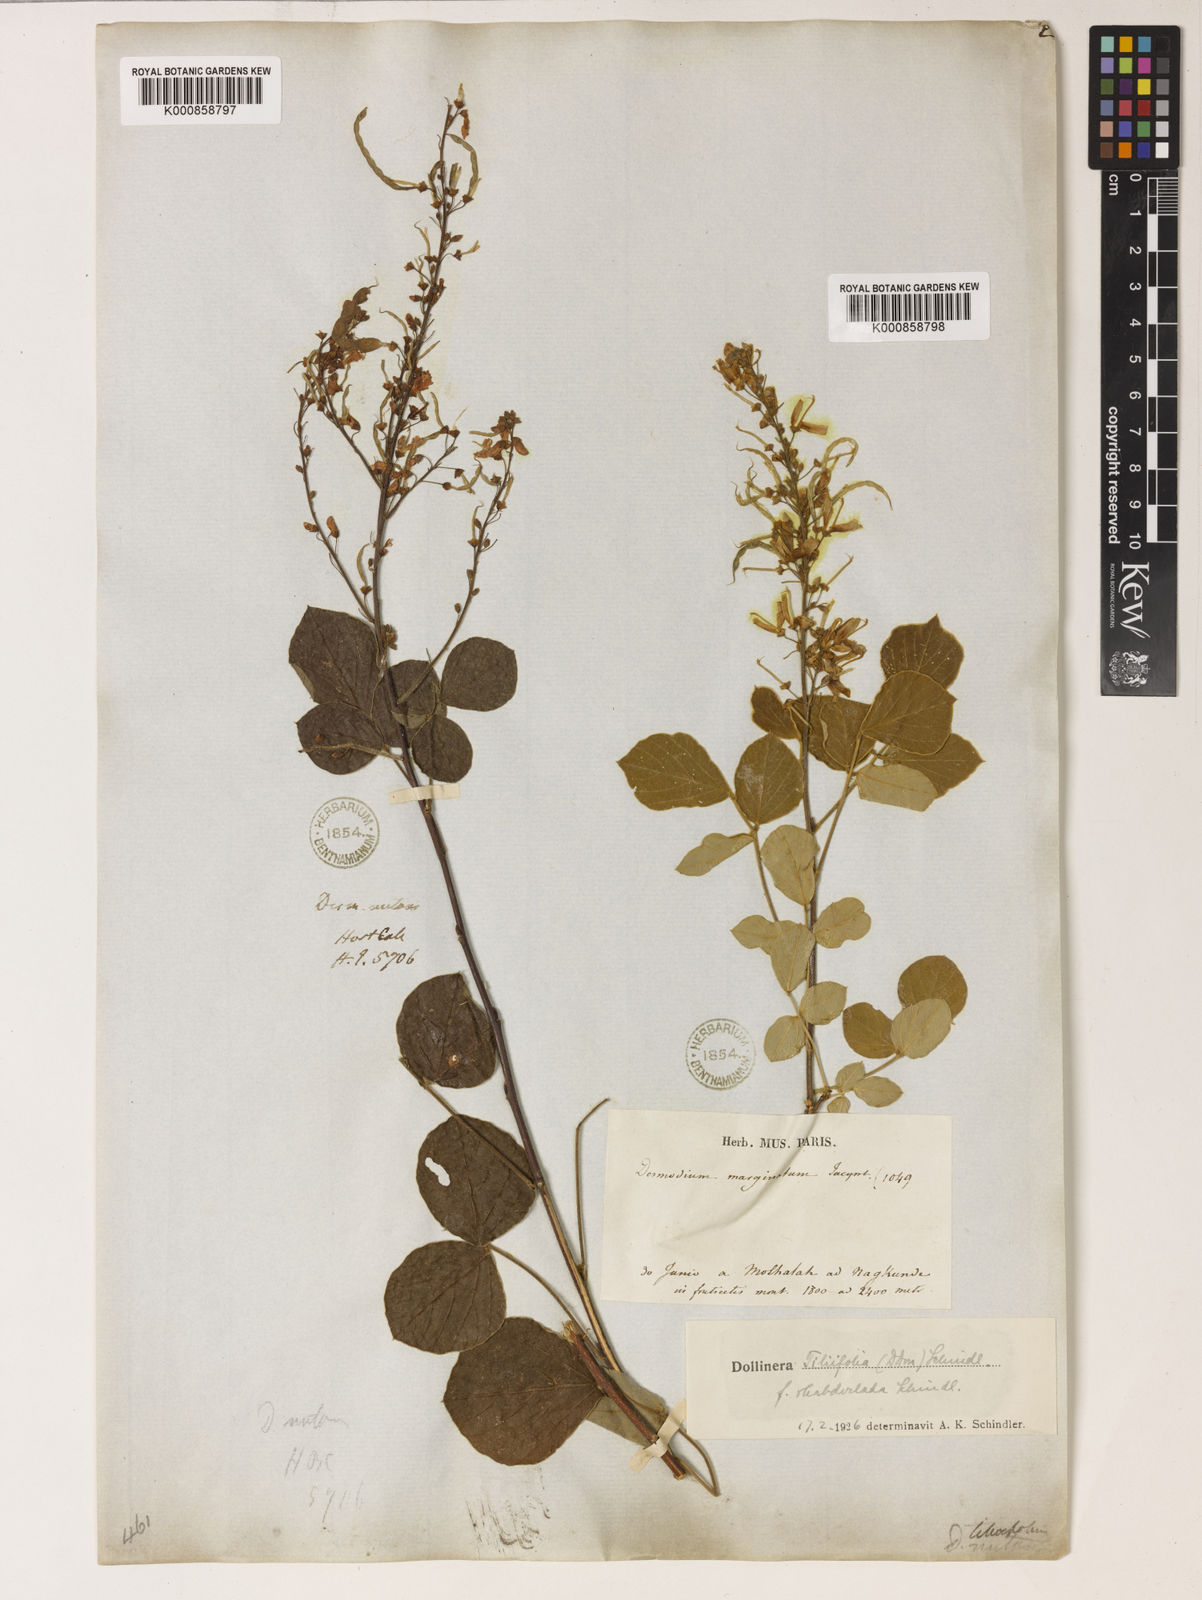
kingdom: Plantae
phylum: Tracheophyta
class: Magnoliopsida
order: Fabales
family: Fabaceae
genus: Sunhangia
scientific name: Sunhangia elegans
